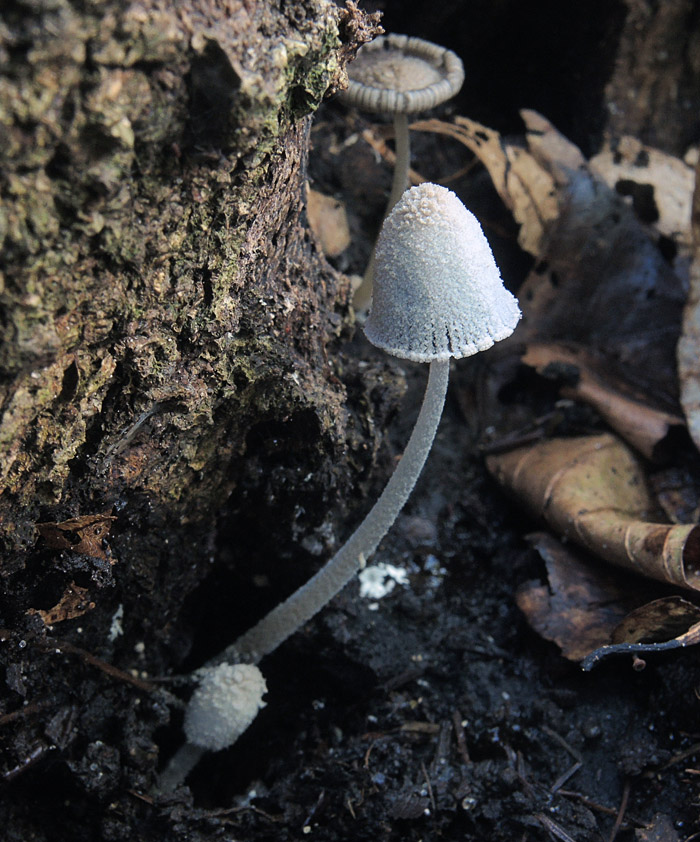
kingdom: Fungi
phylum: Basidiomycota
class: Agaricomycetes
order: Agaricales
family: Psathyrellaceae
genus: Coprinopsis
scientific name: Coprinopsis laanii
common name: stub-blækhat
